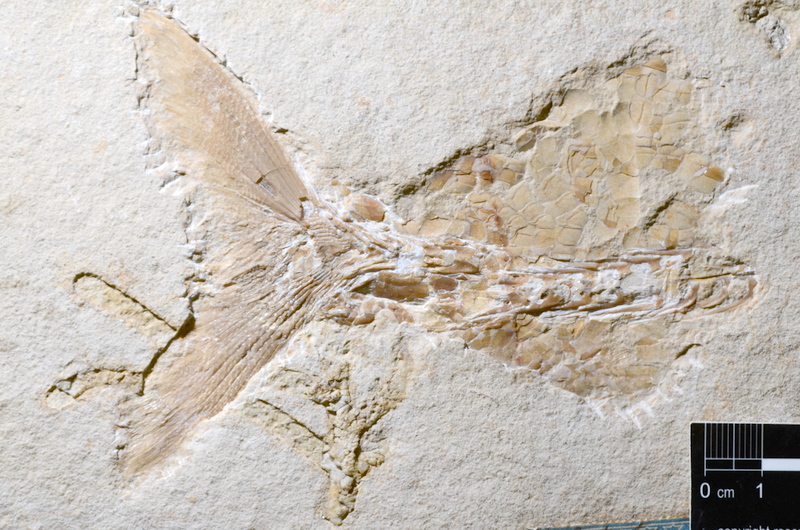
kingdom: Animalia
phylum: Chordata
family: Ankylophoridae
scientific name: Ankylophoridae
